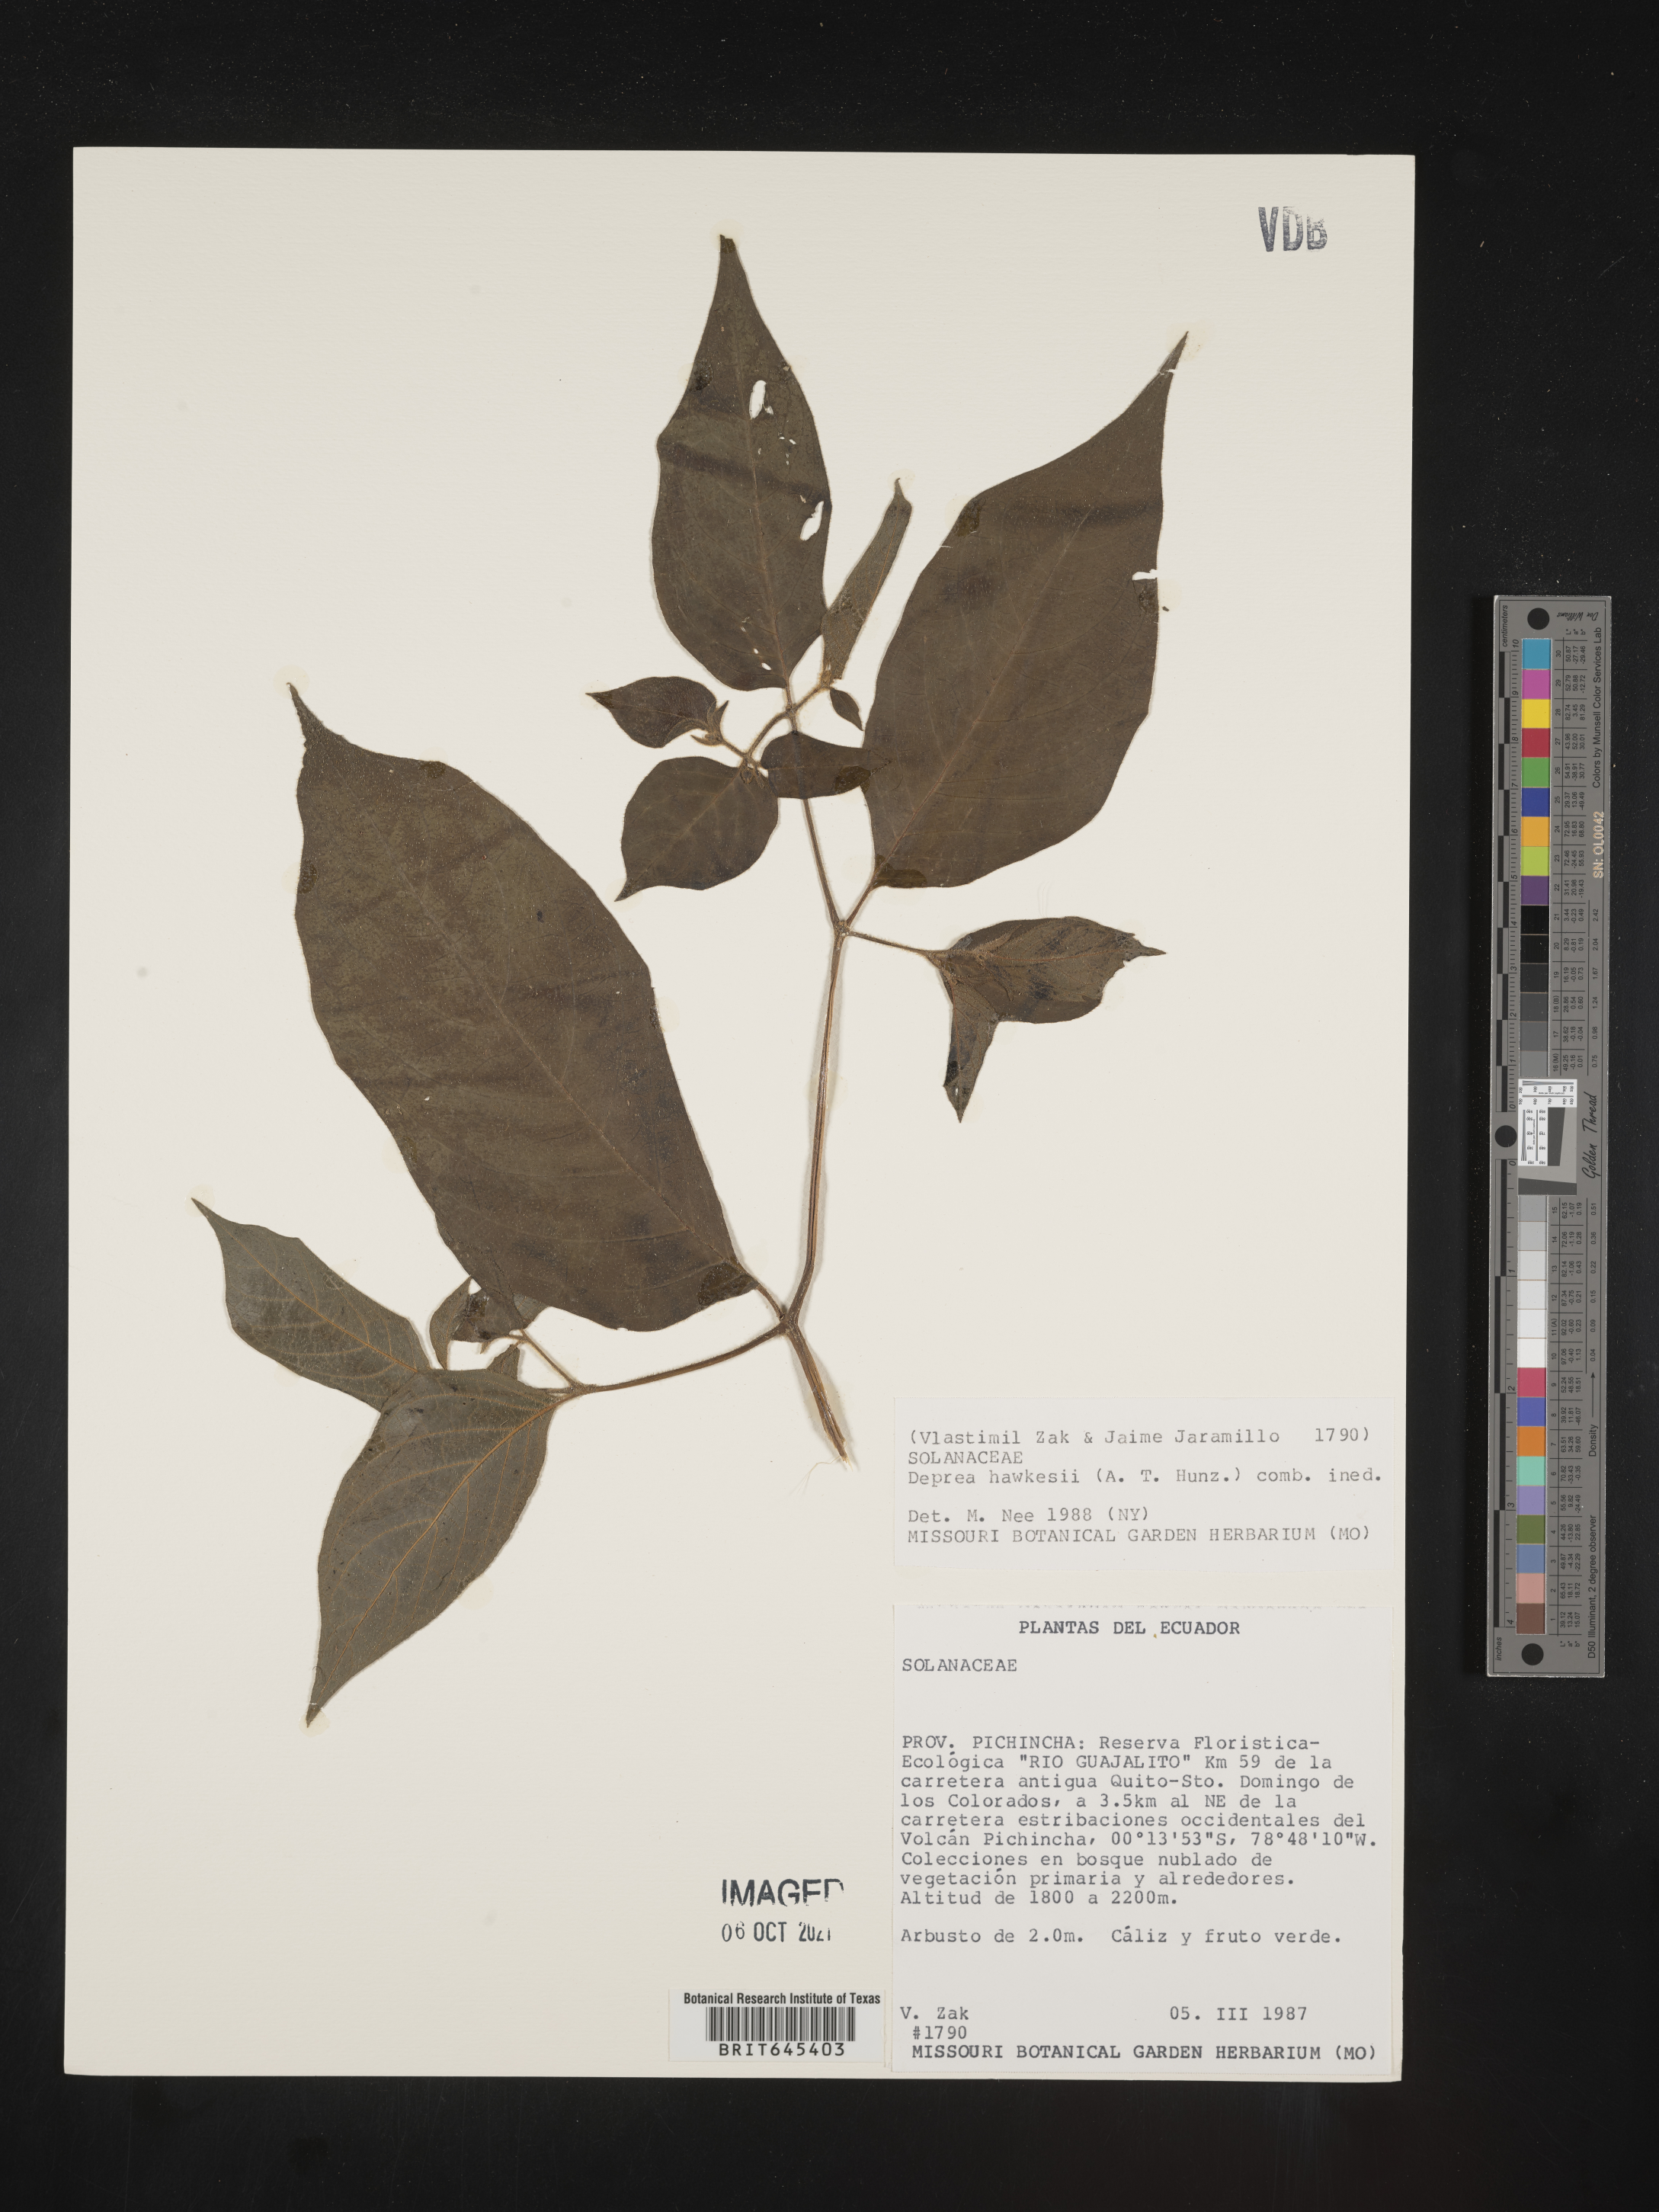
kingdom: Plantae
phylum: Tracheophyta
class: Magnoliopsida
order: Solanales
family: Solanaceae
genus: Deprea
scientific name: Deprea hawkesii
